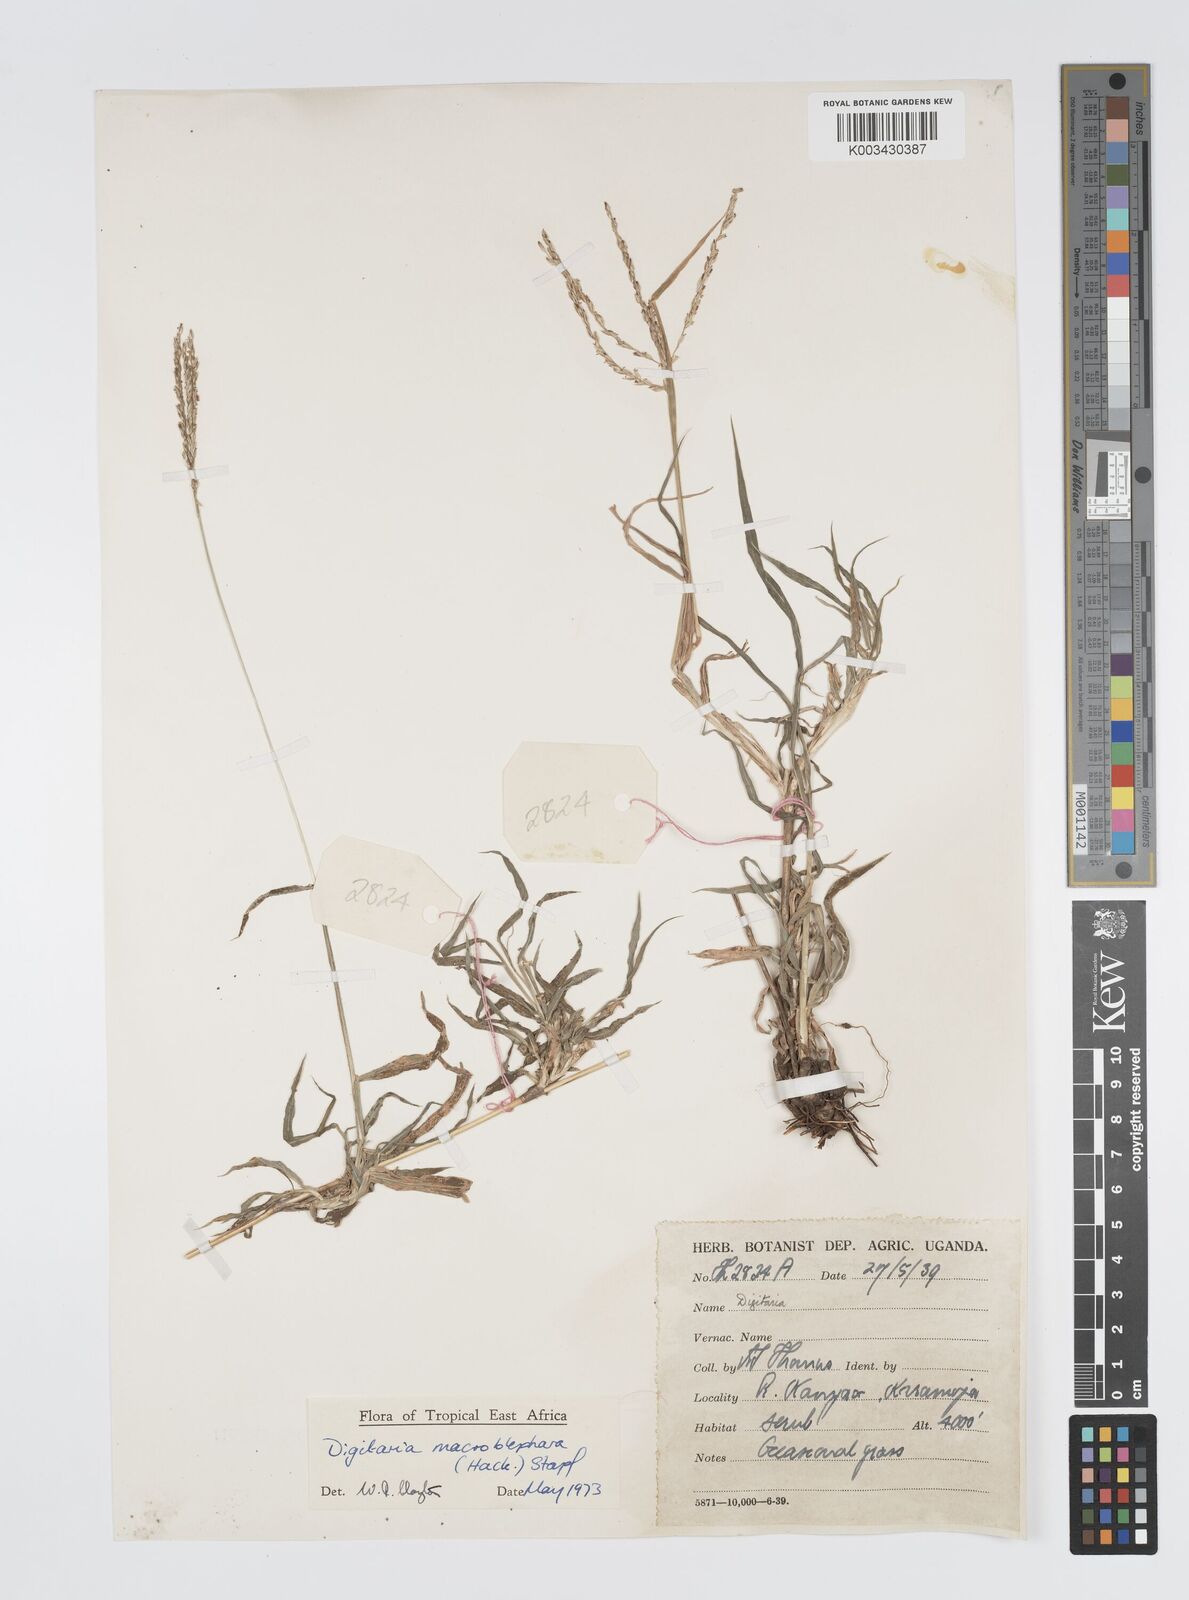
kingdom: Plantae
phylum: Tracheophyta
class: Liliopsida
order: Poales
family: Poaceae
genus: Digitaria
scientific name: Digitaria macroblephara
